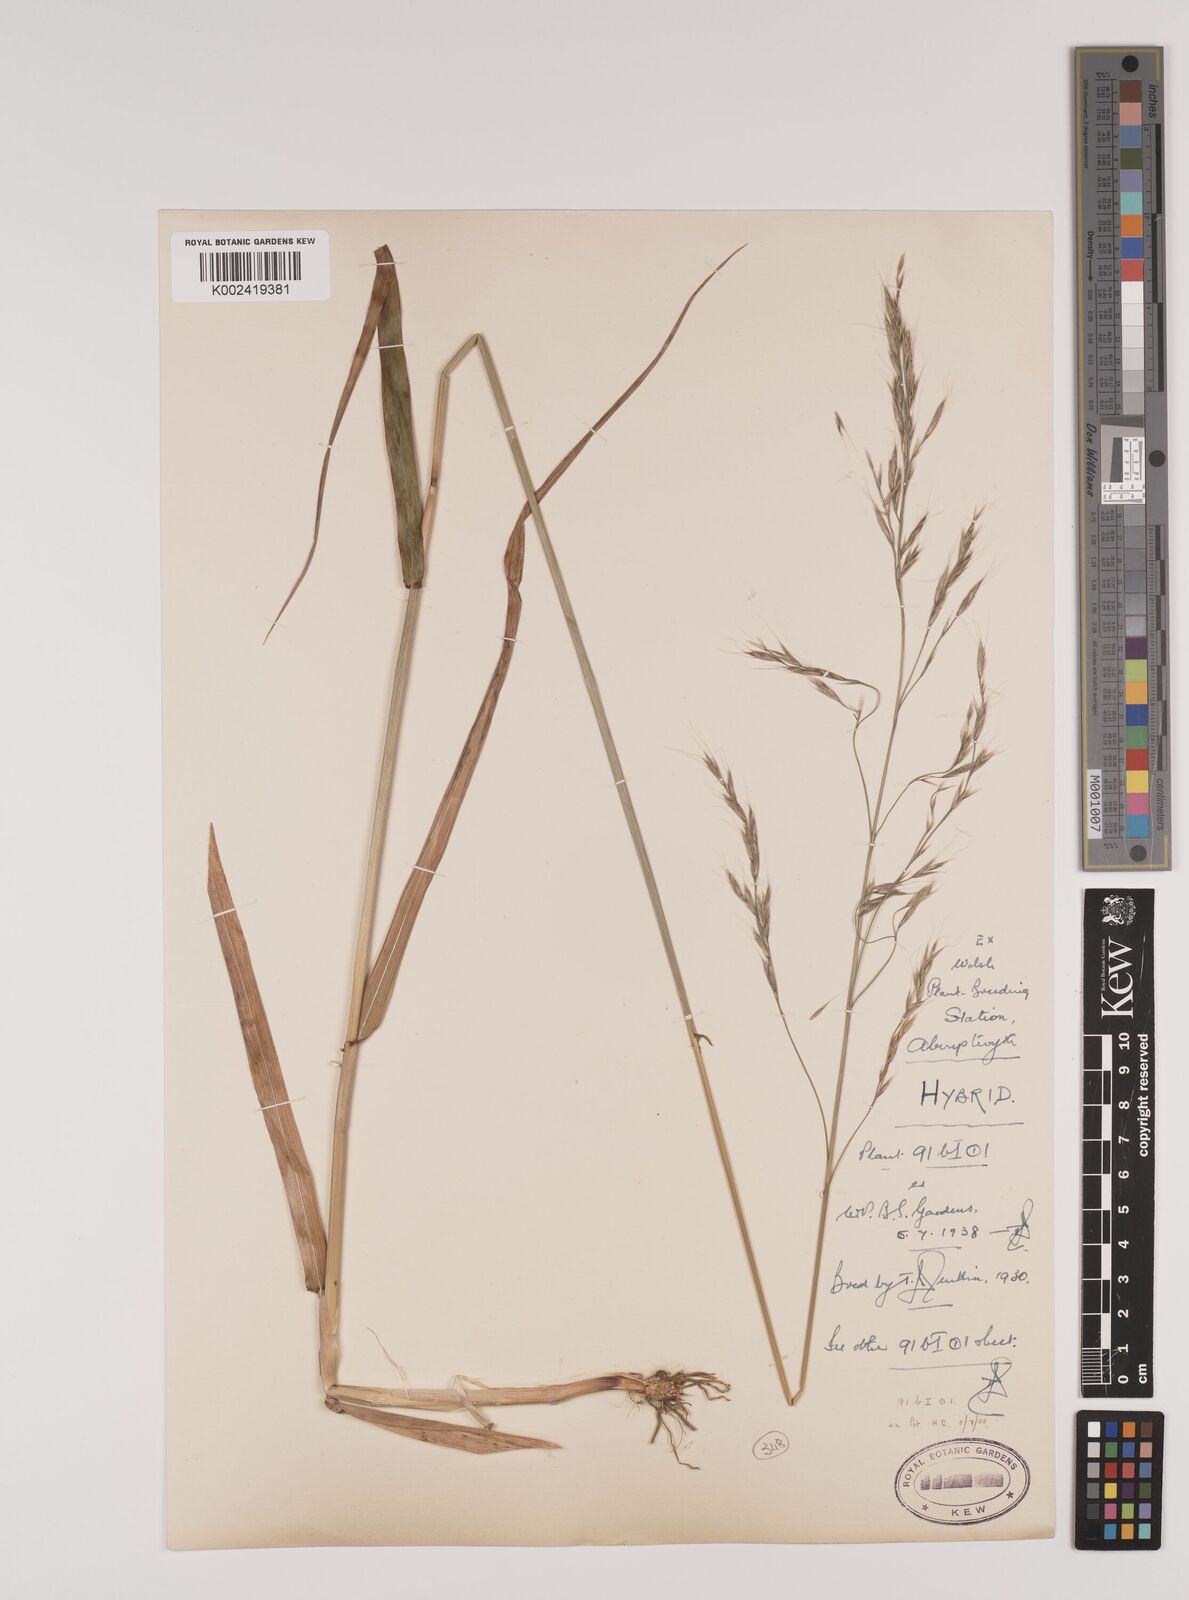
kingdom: Plantae
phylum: Tracheophyta
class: Liliopsida
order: Poales
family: Poaceae
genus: Lolium
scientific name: Lolium giganteum
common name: Giant fescue
